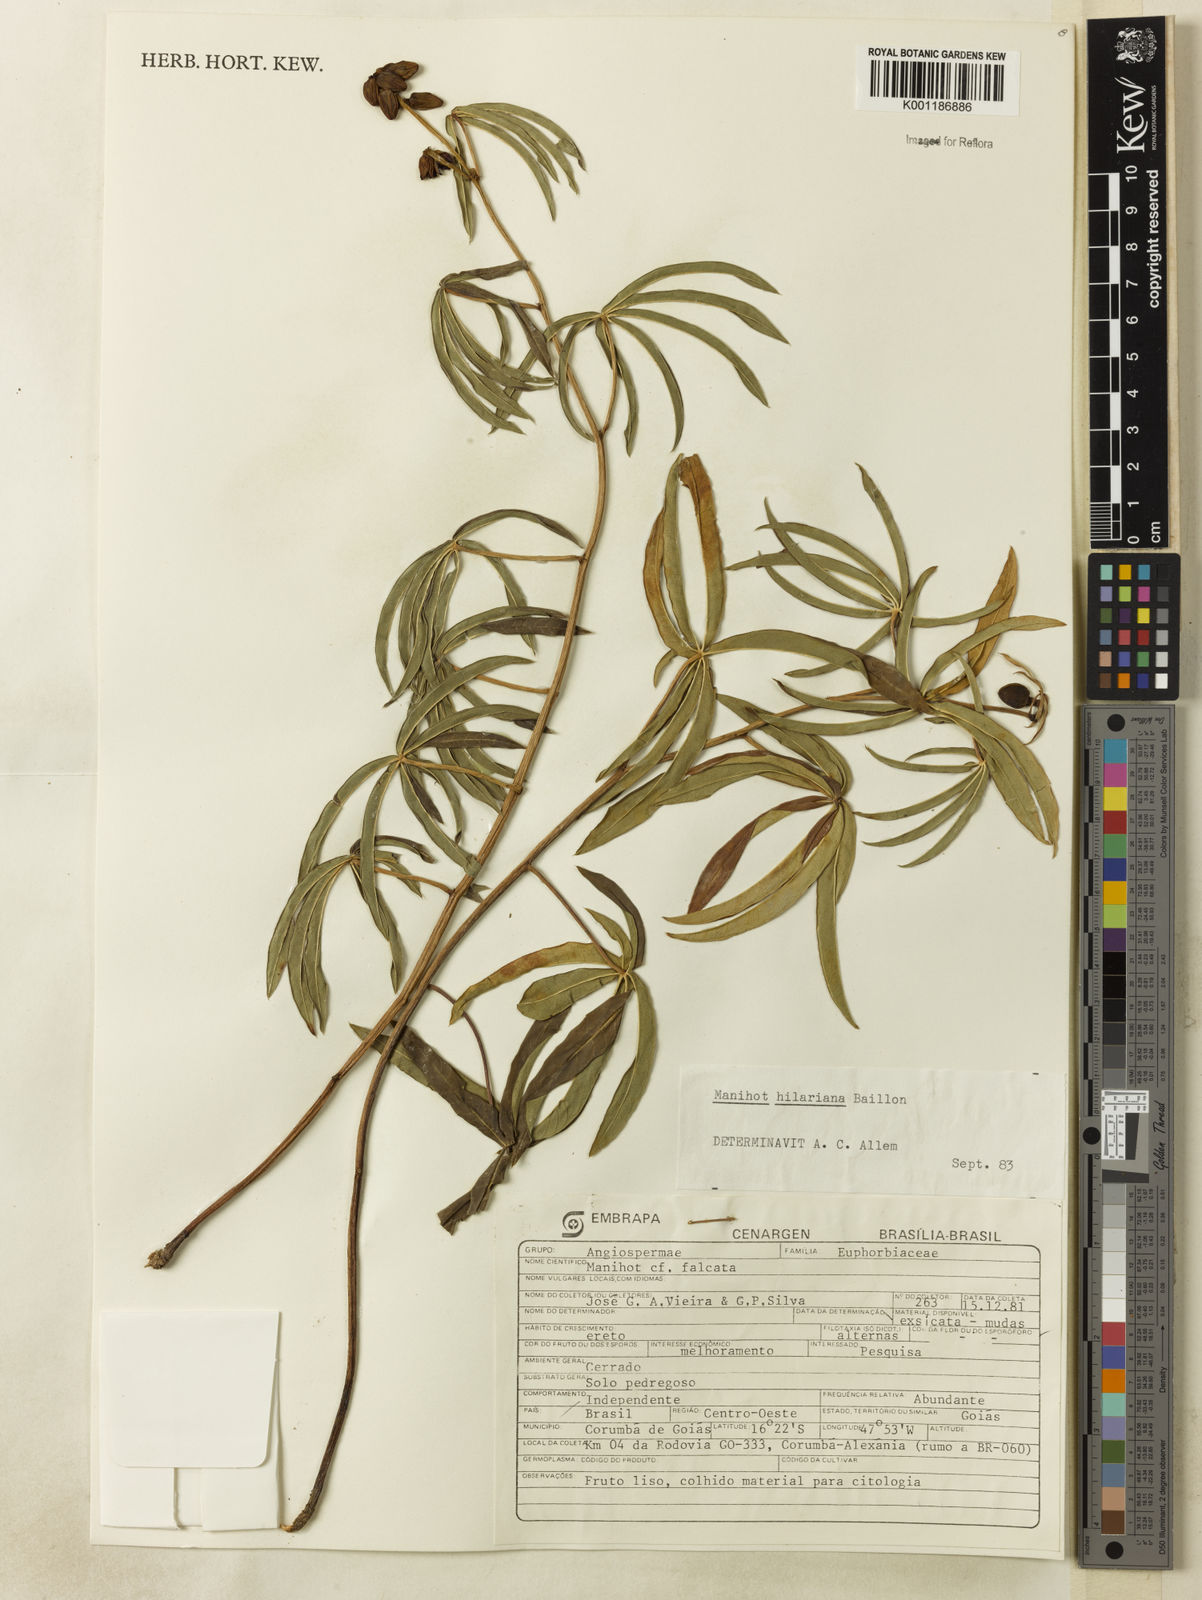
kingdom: Plantae
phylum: Tracheophyta
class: Magnoliopsida
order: Malpighiales
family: Euphorbiaceae
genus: Manihot
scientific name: Manihot hilariana
